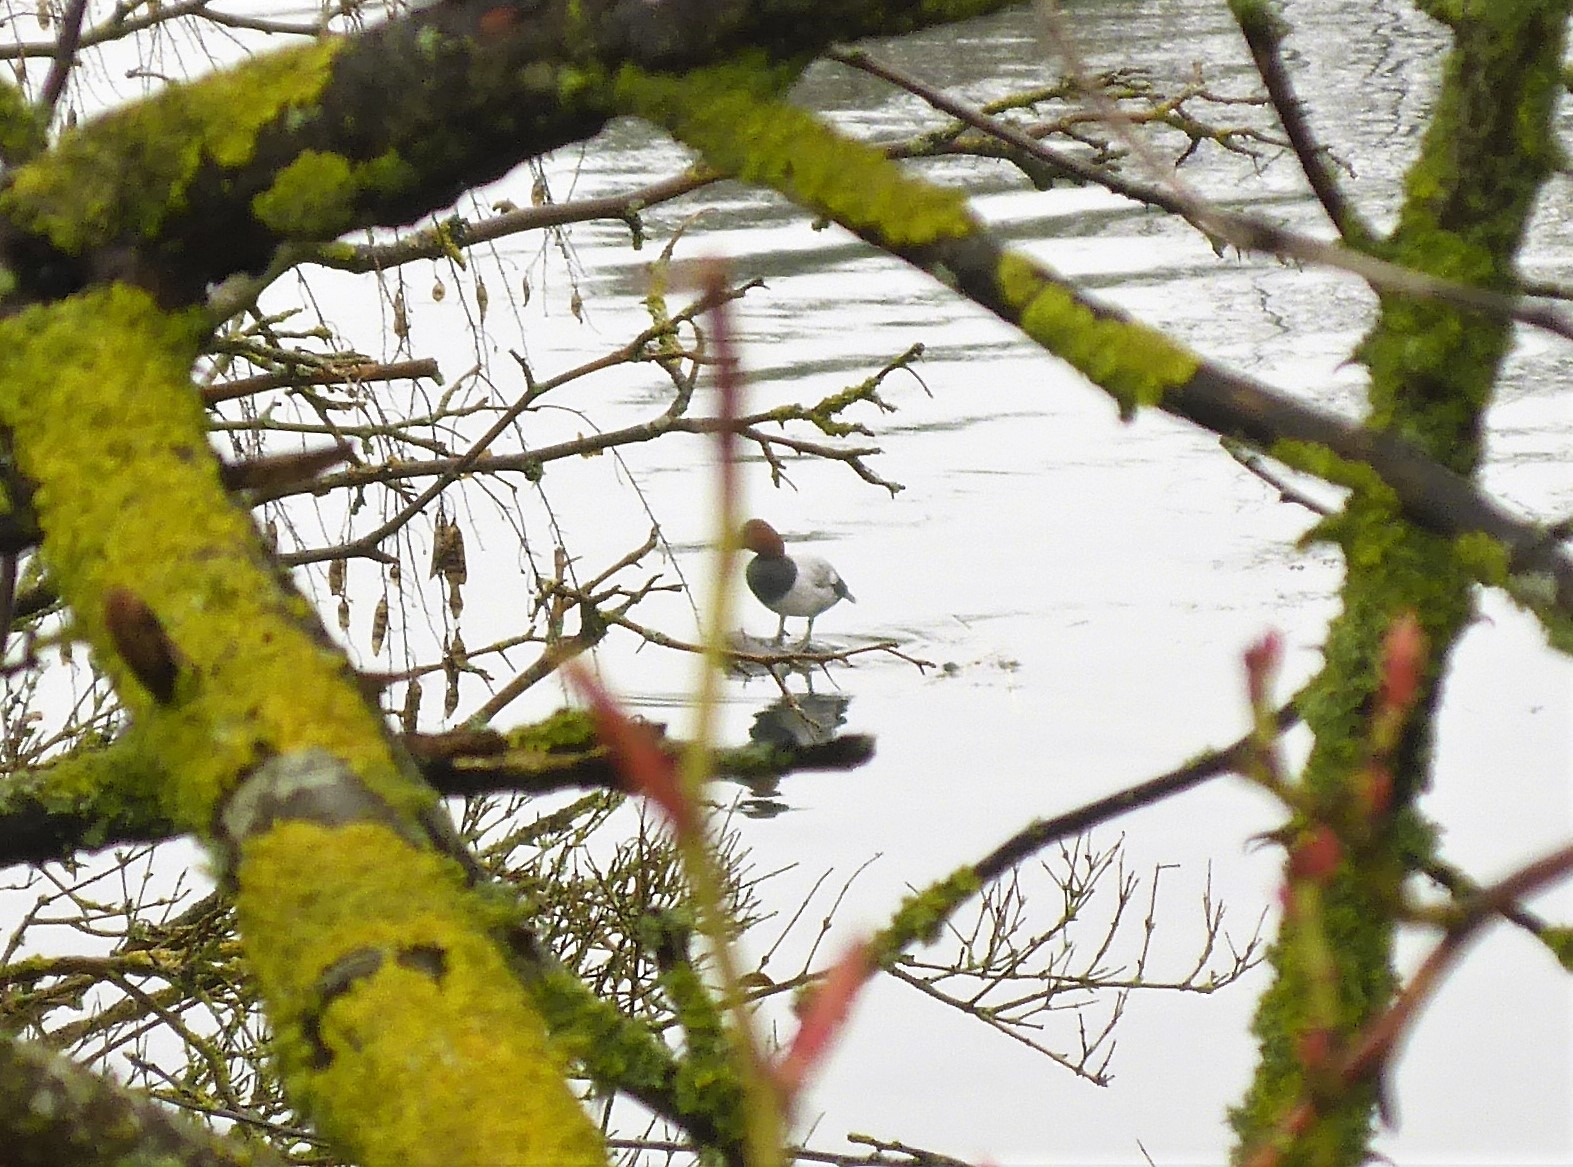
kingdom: Animalia
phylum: Chordata
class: Aves
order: Anseriformes
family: Anatidae
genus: Aythya
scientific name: Aythya ferina
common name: Taffeland
